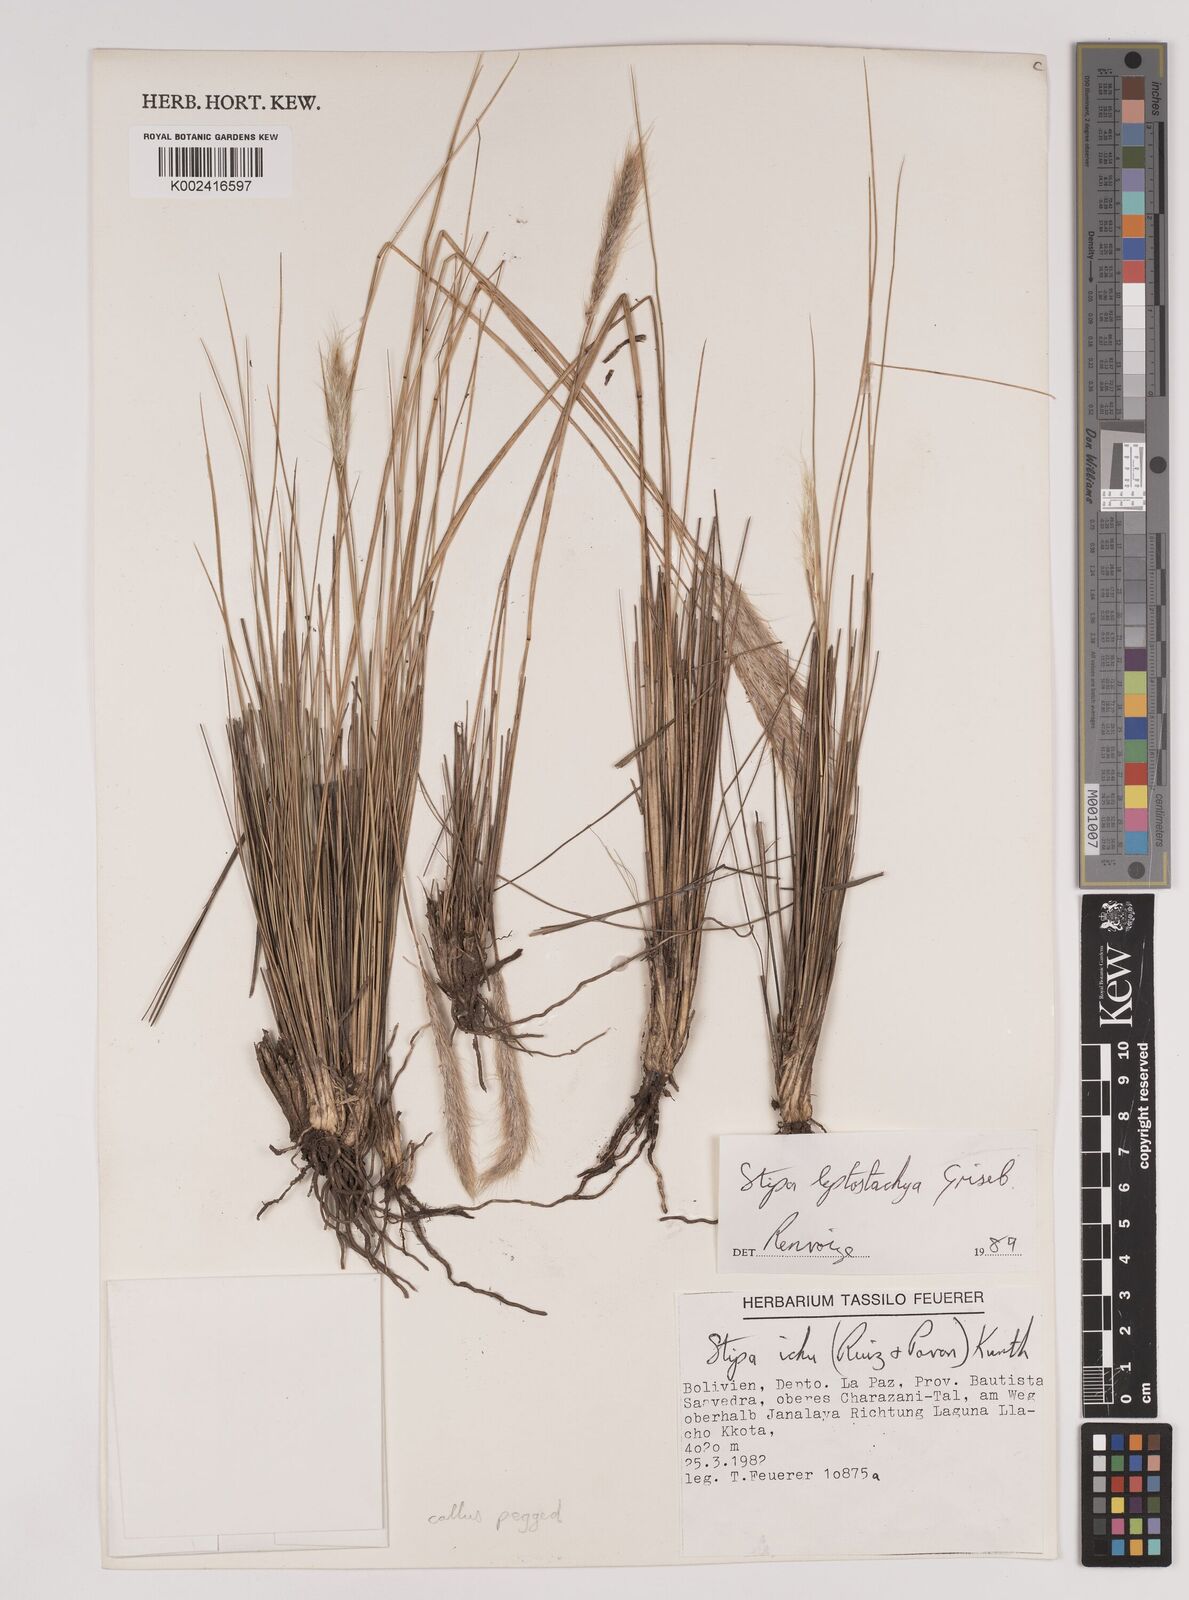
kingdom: Plantae
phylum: Tracheophyta
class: Liliopsida
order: Poales
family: Poaceae
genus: Jarava
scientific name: Jarava leptostachya
